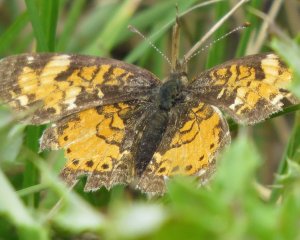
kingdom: Animalia
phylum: Arthropoda
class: Insecta
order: Lepidoptera
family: Nymphalidae
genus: Phyciodes
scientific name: Phyciodes tharos
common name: Northern Crescent
